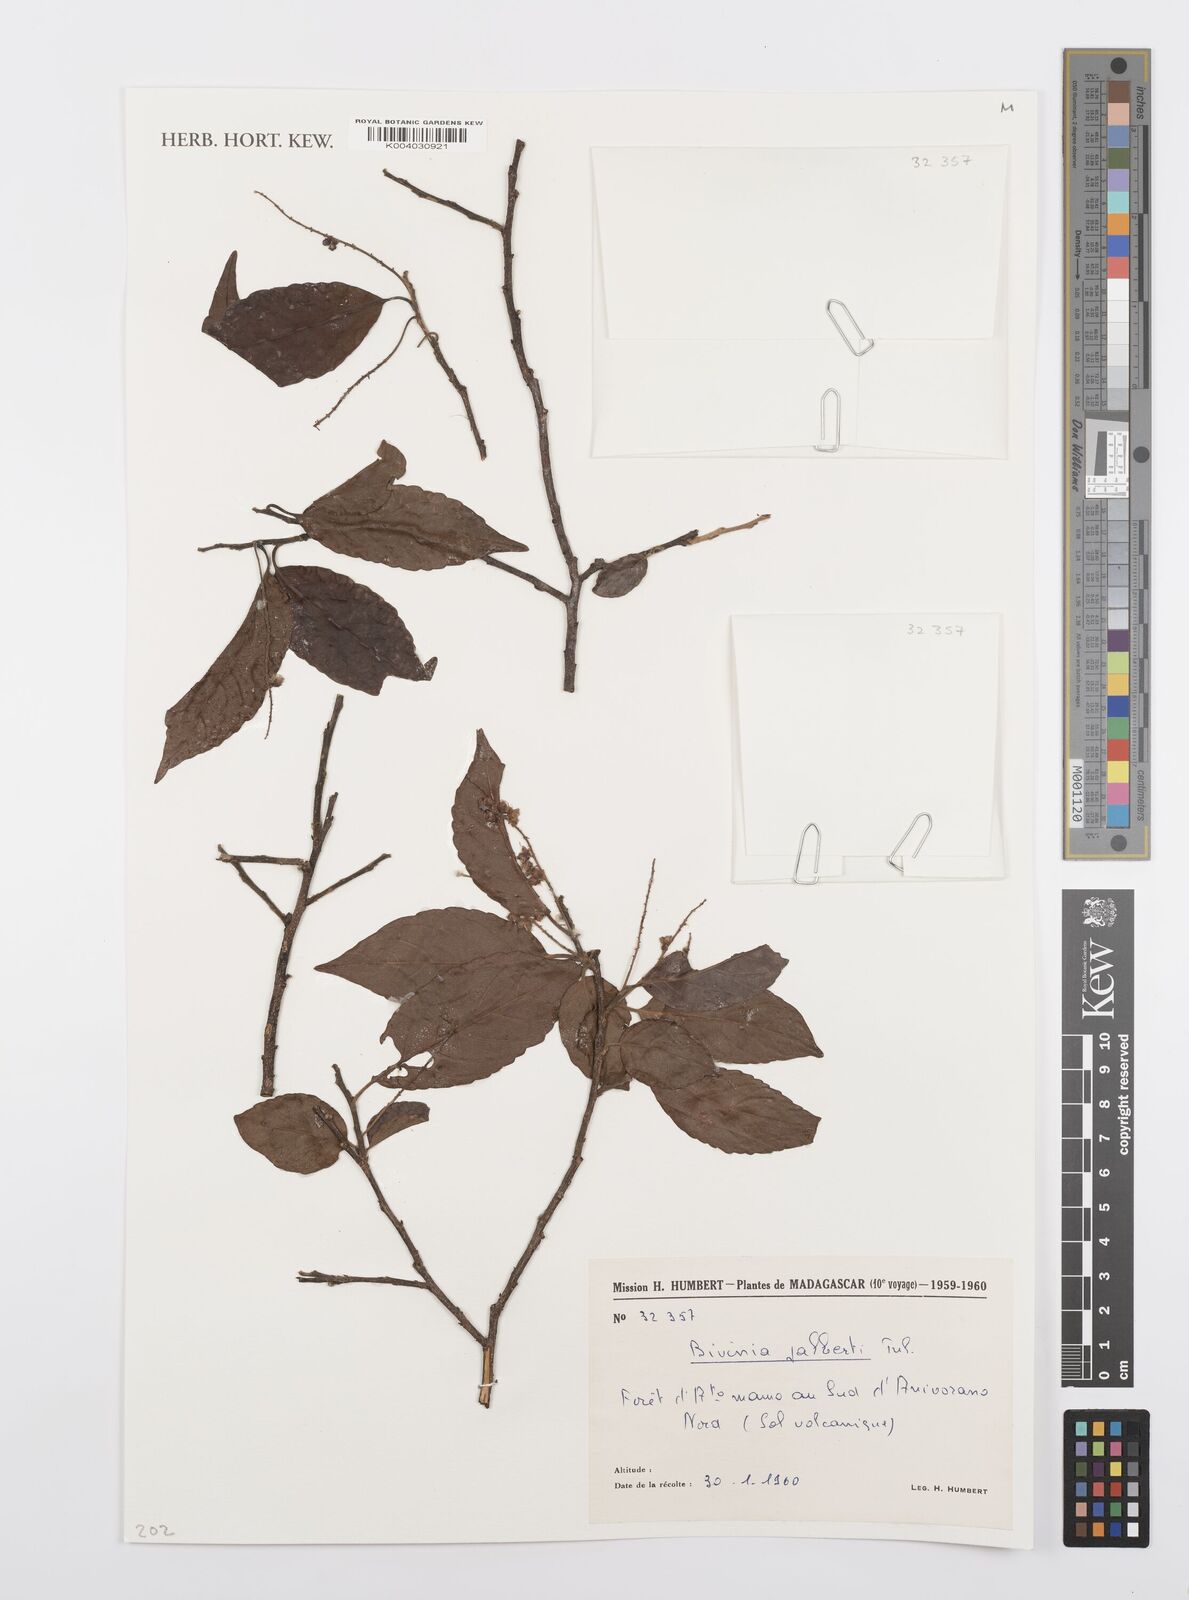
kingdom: Plantae
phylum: Tracheophyta
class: Magnoliopsida
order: Malpighiales
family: Salicaceae
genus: Bivinia
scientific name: Bivinia jalbertii
